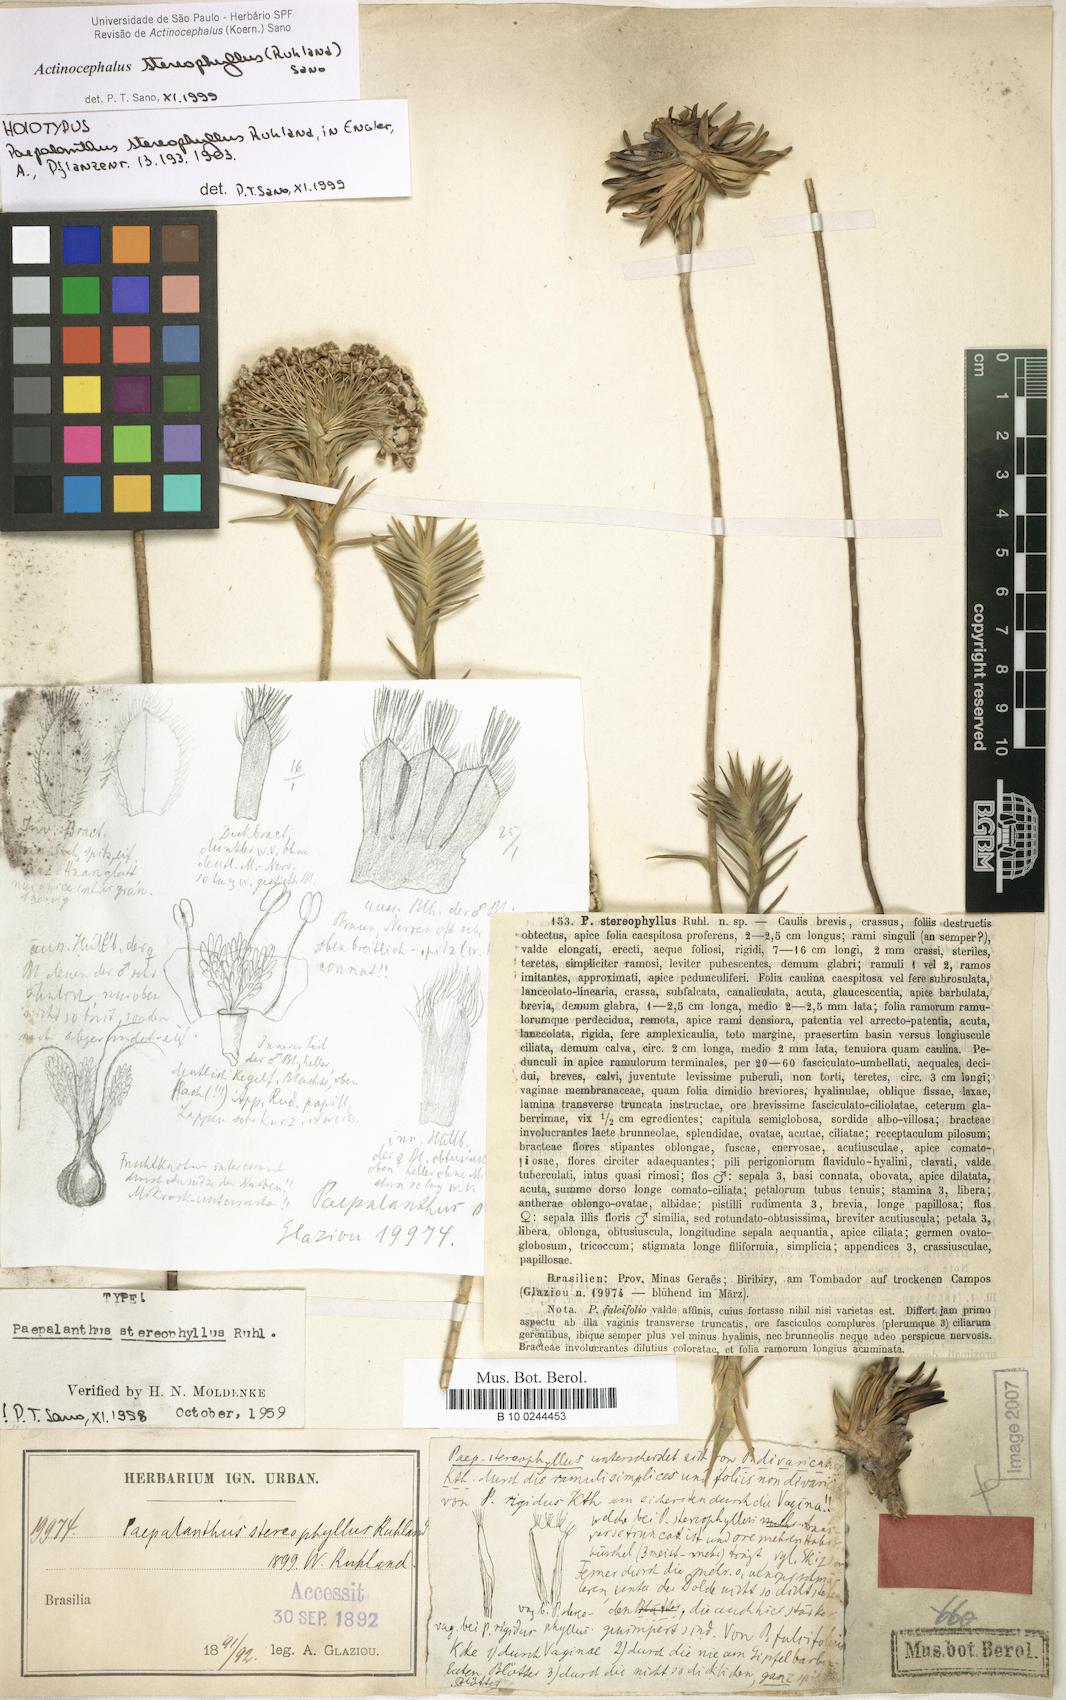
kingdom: Plantae
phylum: Tracheophyta
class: Liliopsida
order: Poales
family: Eriocaulaceae
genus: Paepalanthus
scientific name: Paepalanthus stereophyllus
